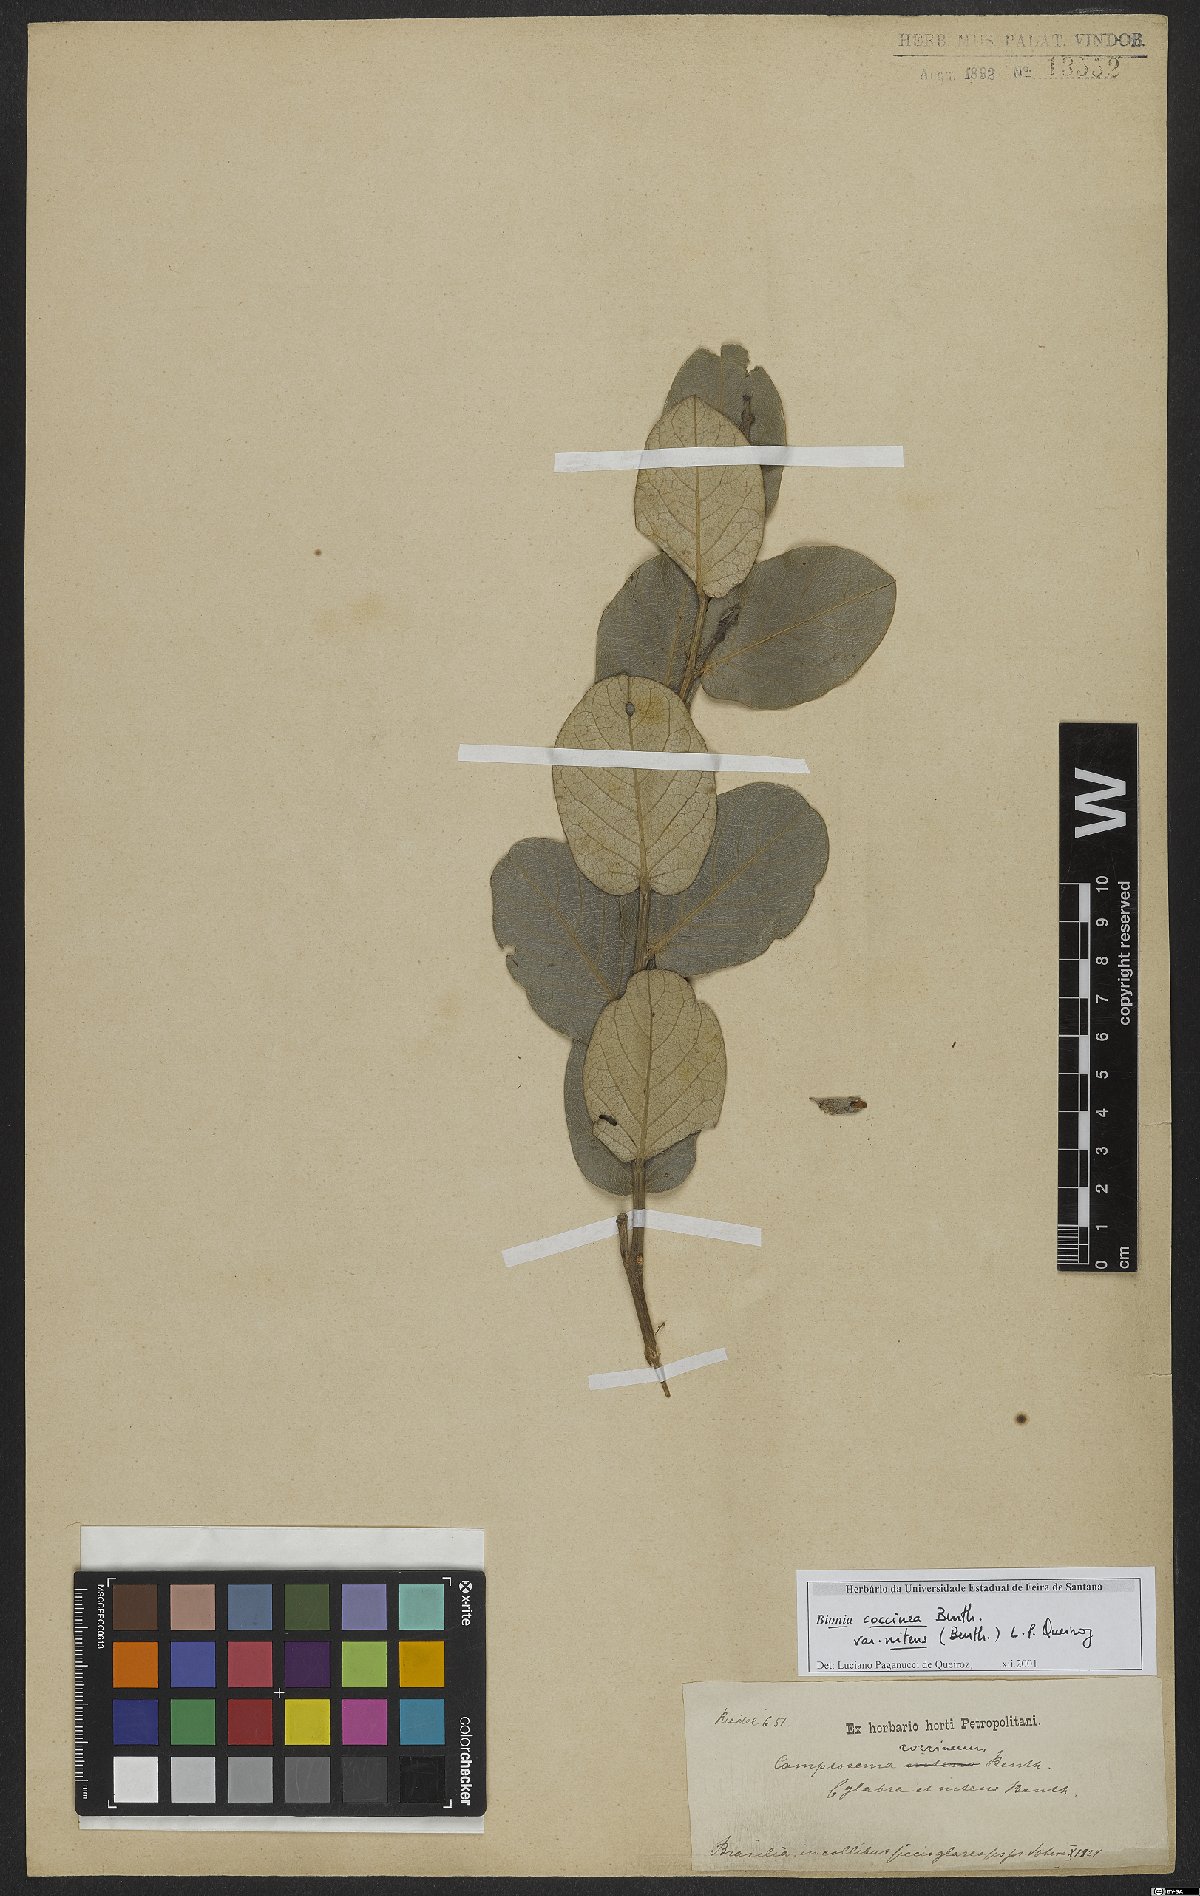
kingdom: Plantae
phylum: Tracheophyta
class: Magnoliopsida
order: Fabales
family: Fabaceae
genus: Camptosema
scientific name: Camptosema coccineum
